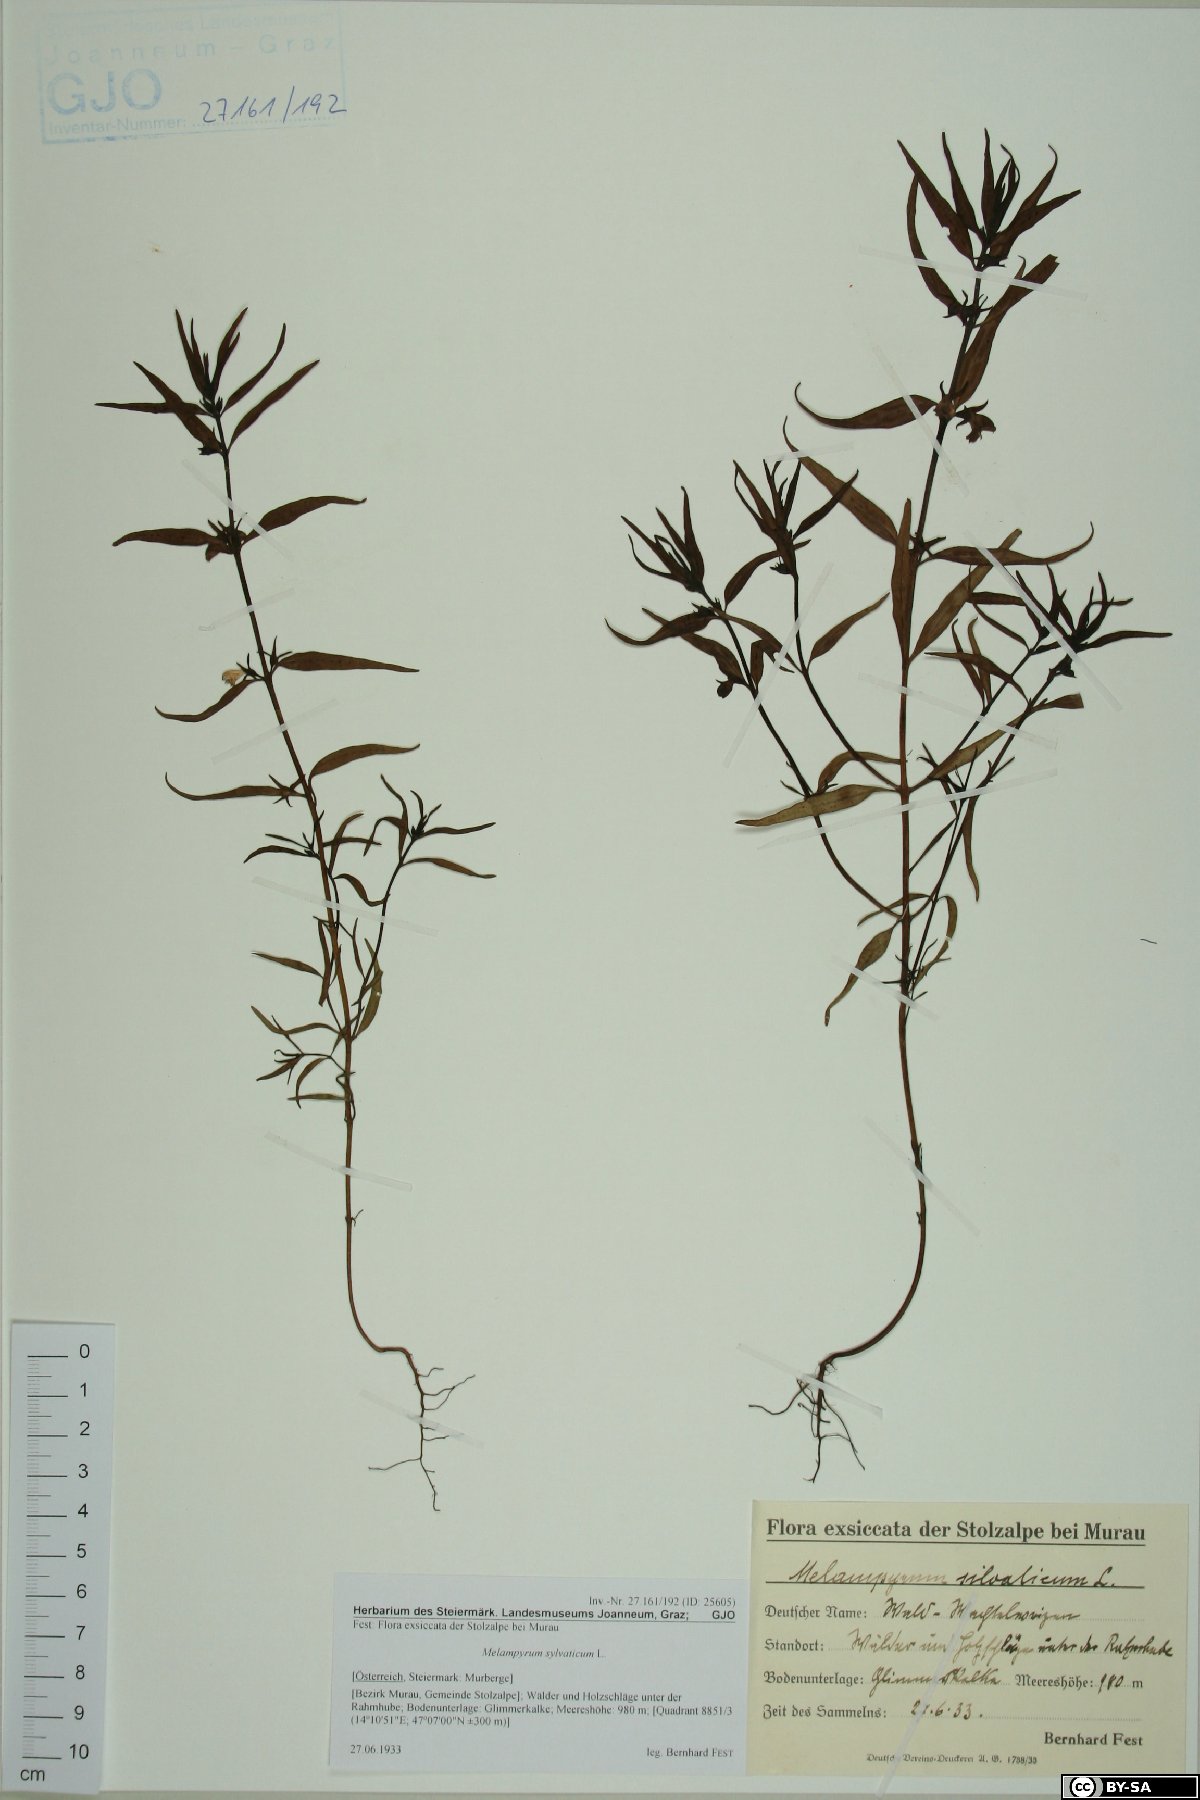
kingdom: Plantae
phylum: Tracheophyta
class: Magnoliopsida
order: Lamiales
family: Orobanchaceae
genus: Melampyrum
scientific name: Melampyrum sylvaticum
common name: Small cow-wheat
